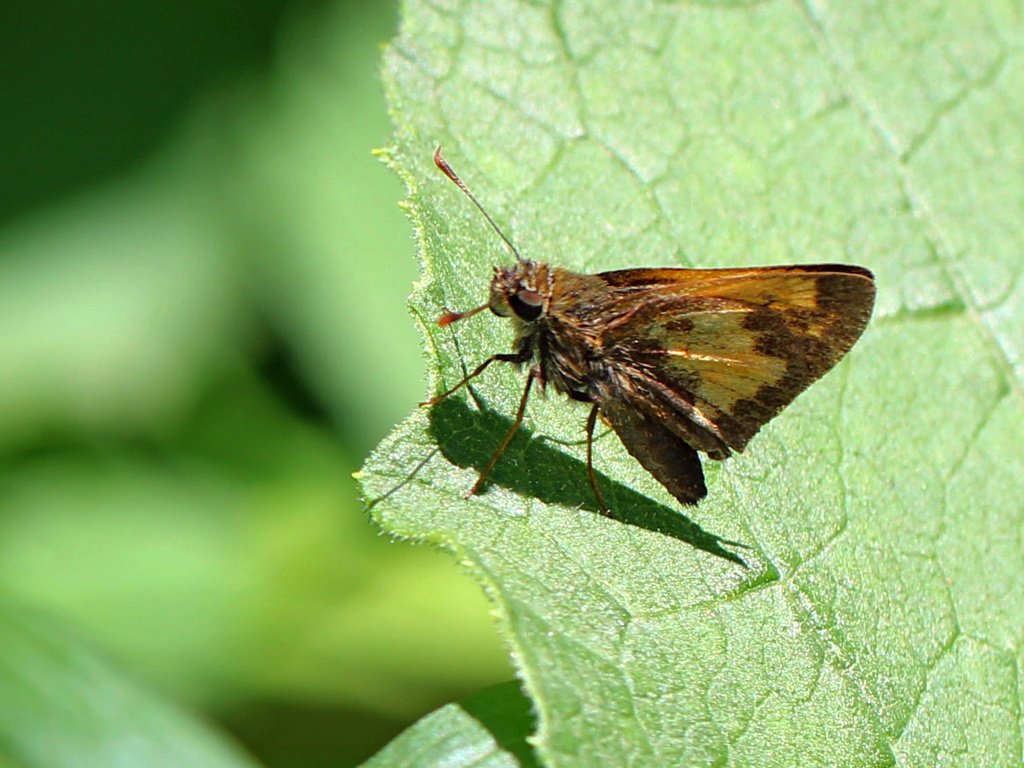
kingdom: Animalia
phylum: Arthropoda
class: Insecta
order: Lepidoptera
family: Hesperiidae
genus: Polites
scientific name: Polites coras
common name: Peck's Skipper
